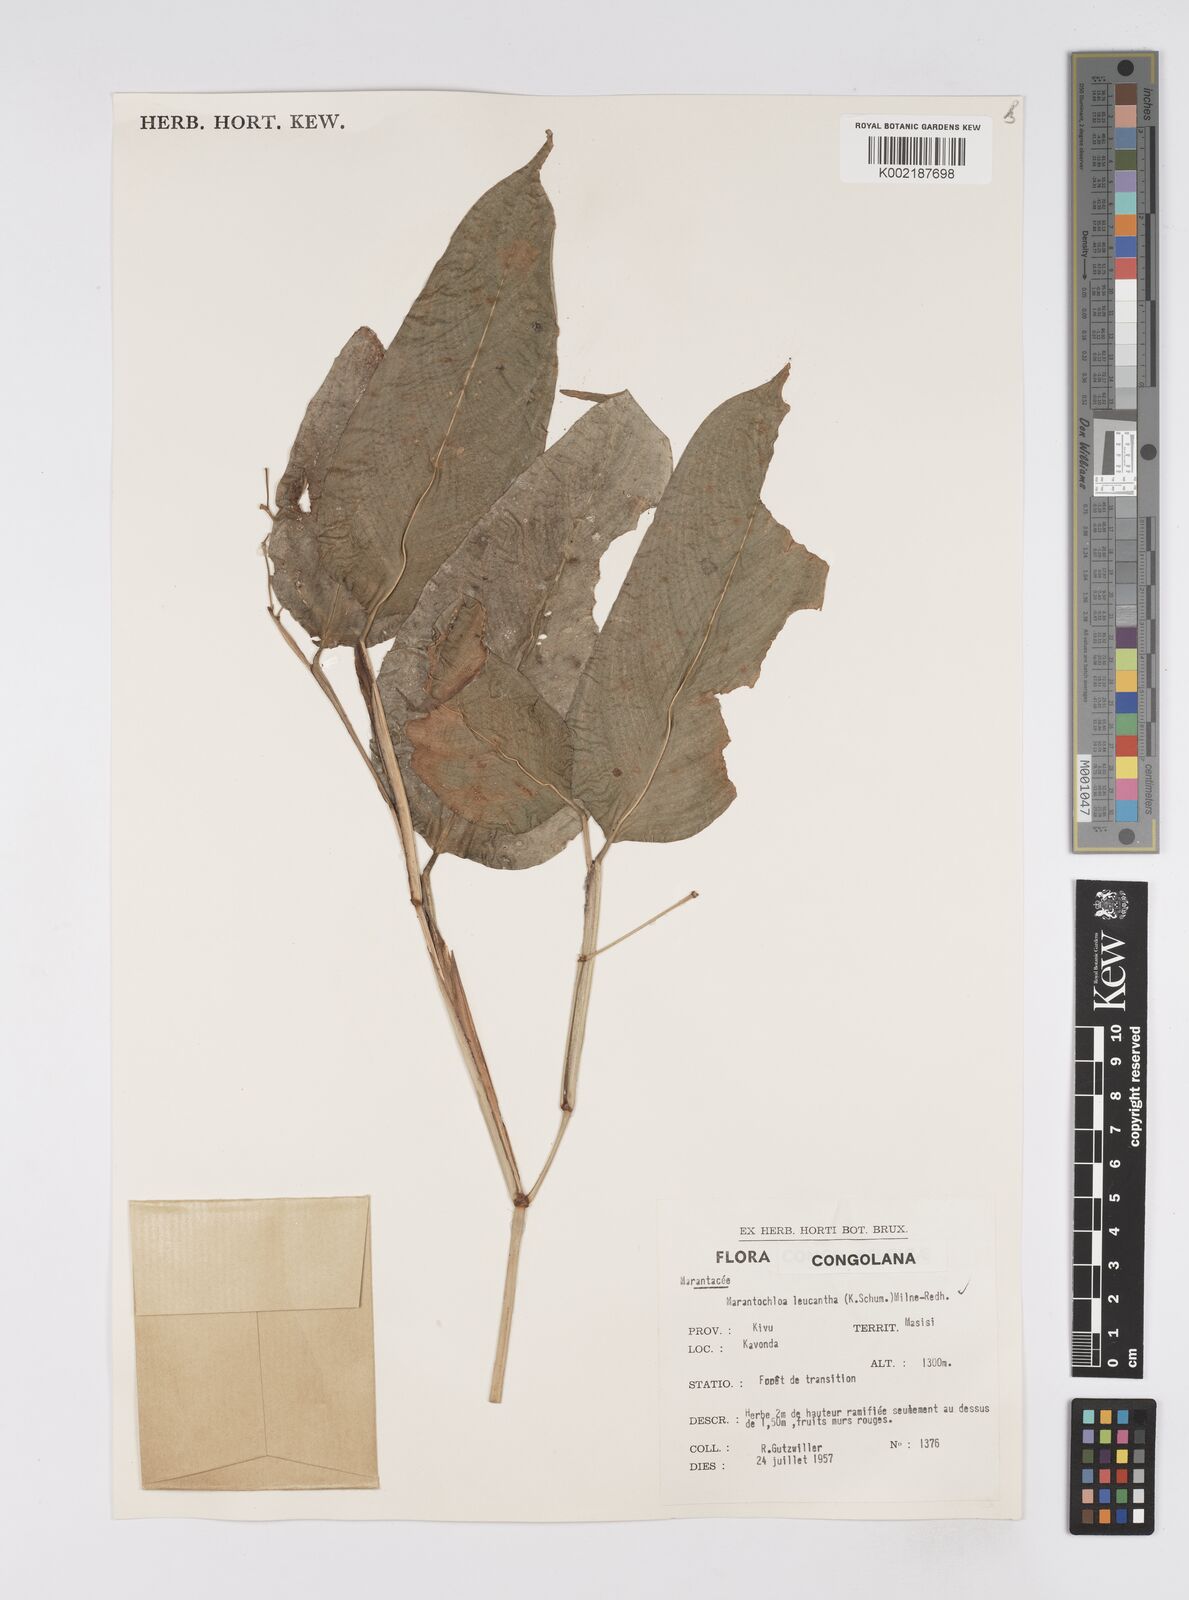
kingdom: Plantae
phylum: Tracheophyta
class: Liliopsida
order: Zingiberales
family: Marantaceae
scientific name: Marantaceae
